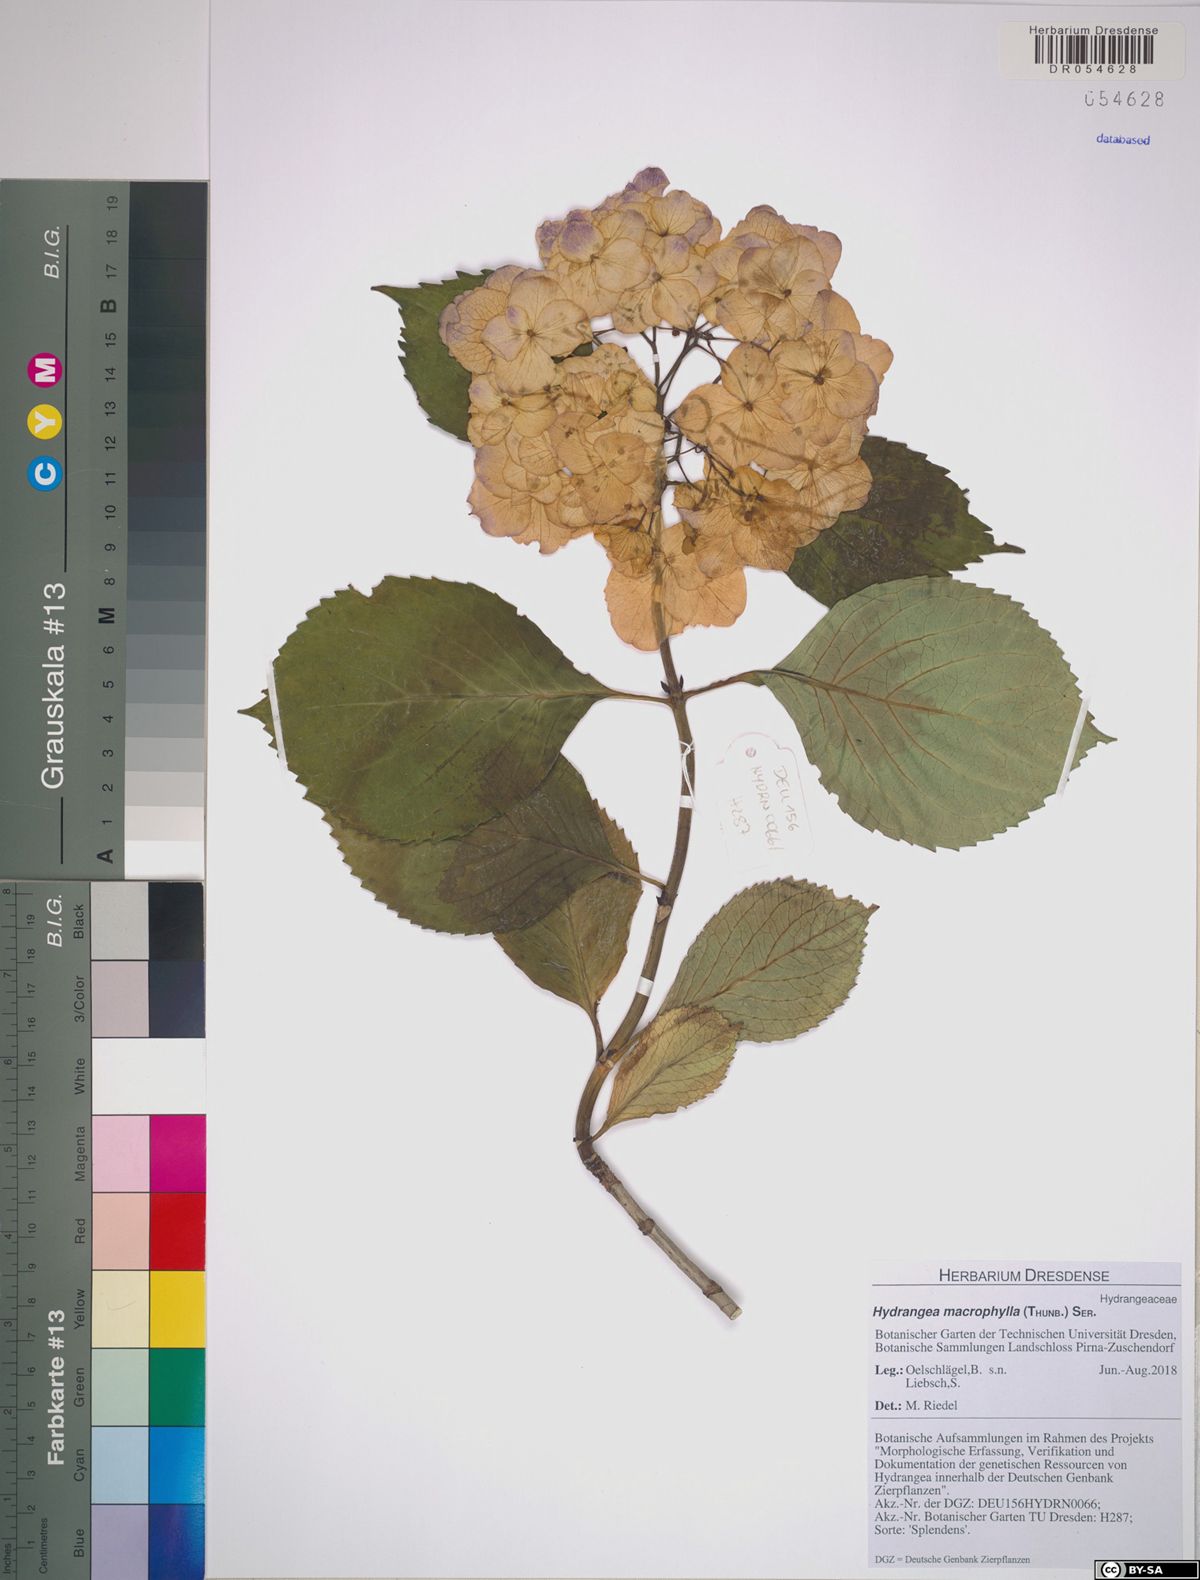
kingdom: Plantae
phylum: Tracheophyta
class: Magnoliopsida
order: Cornales
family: Hydrangeaceae
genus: Hydrangea
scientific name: Hydrangea macrophylla
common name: Hydrangea
